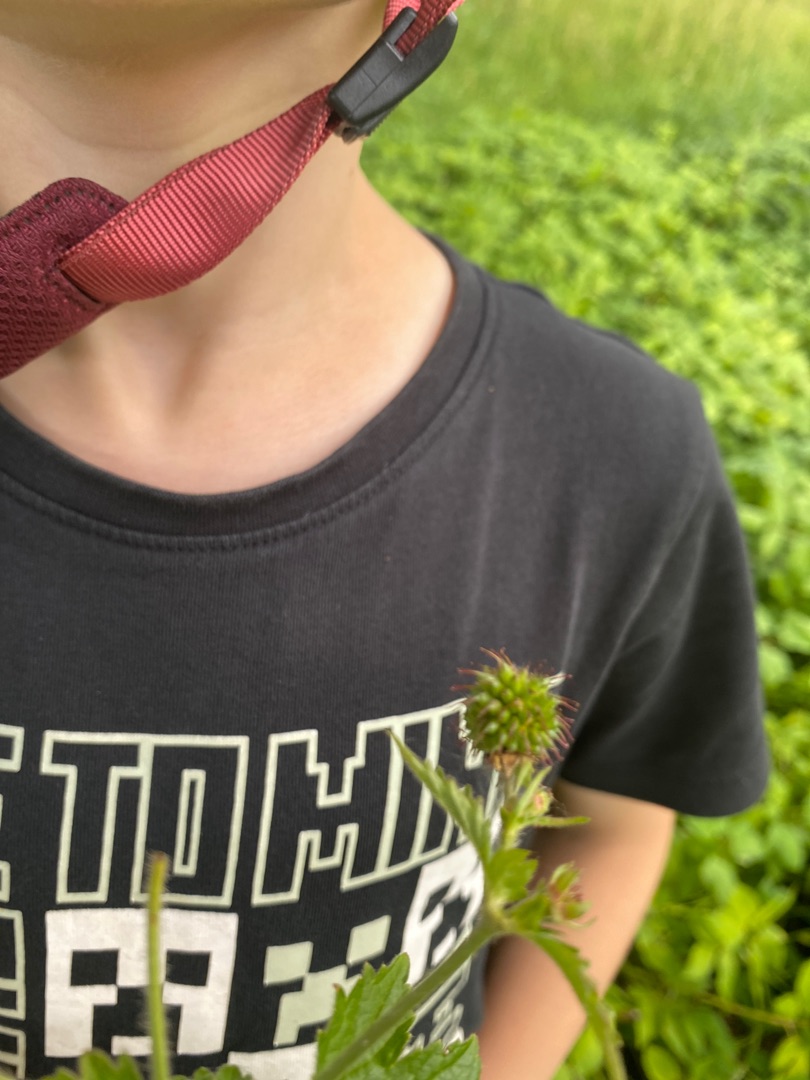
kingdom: Plantae
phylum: Tracheophyta
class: Magnoliopsida
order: Rosales
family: Rosaceae
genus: Geum
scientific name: Geum urbanum
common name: Feber-nellikerod
